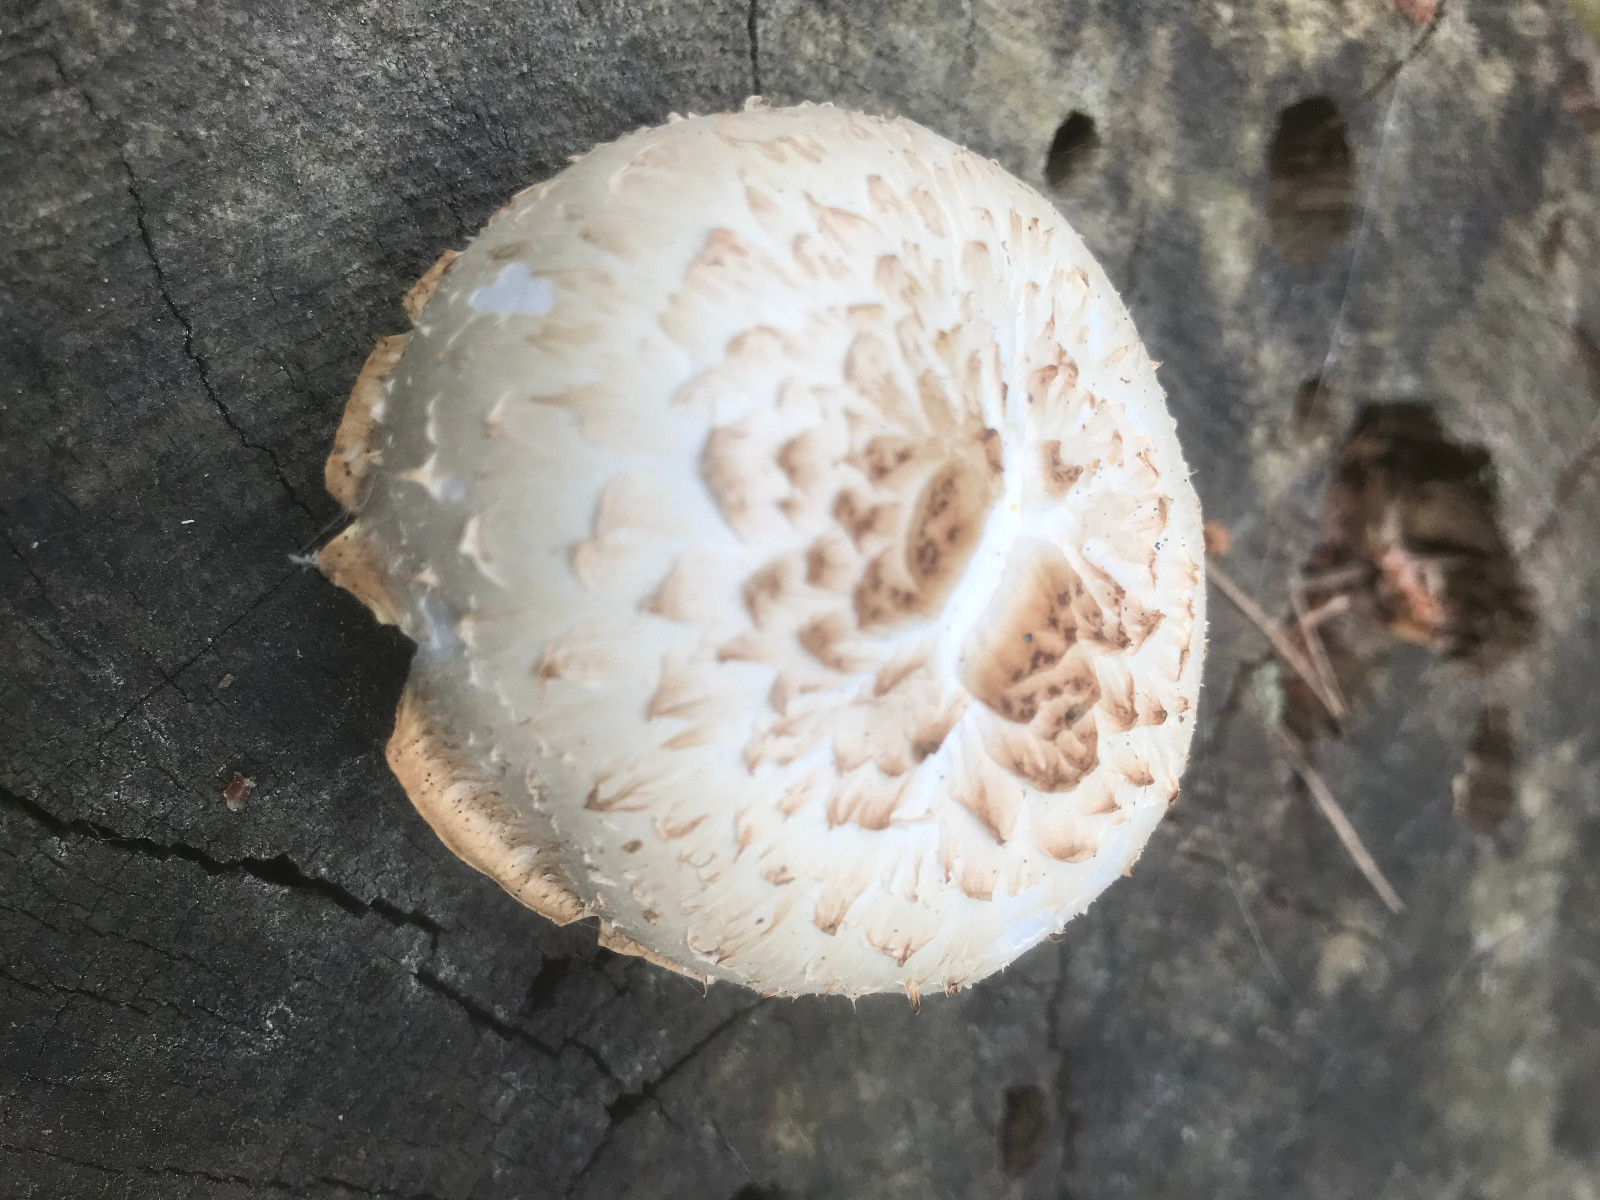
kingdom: Fungi
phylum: Basidiomycota
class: Agaricomycetes
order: Gloeophyllales
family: Gloeophyllaceae
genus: Neolentinus
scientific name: Neolentinus lepideus
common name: skællet sejhat
